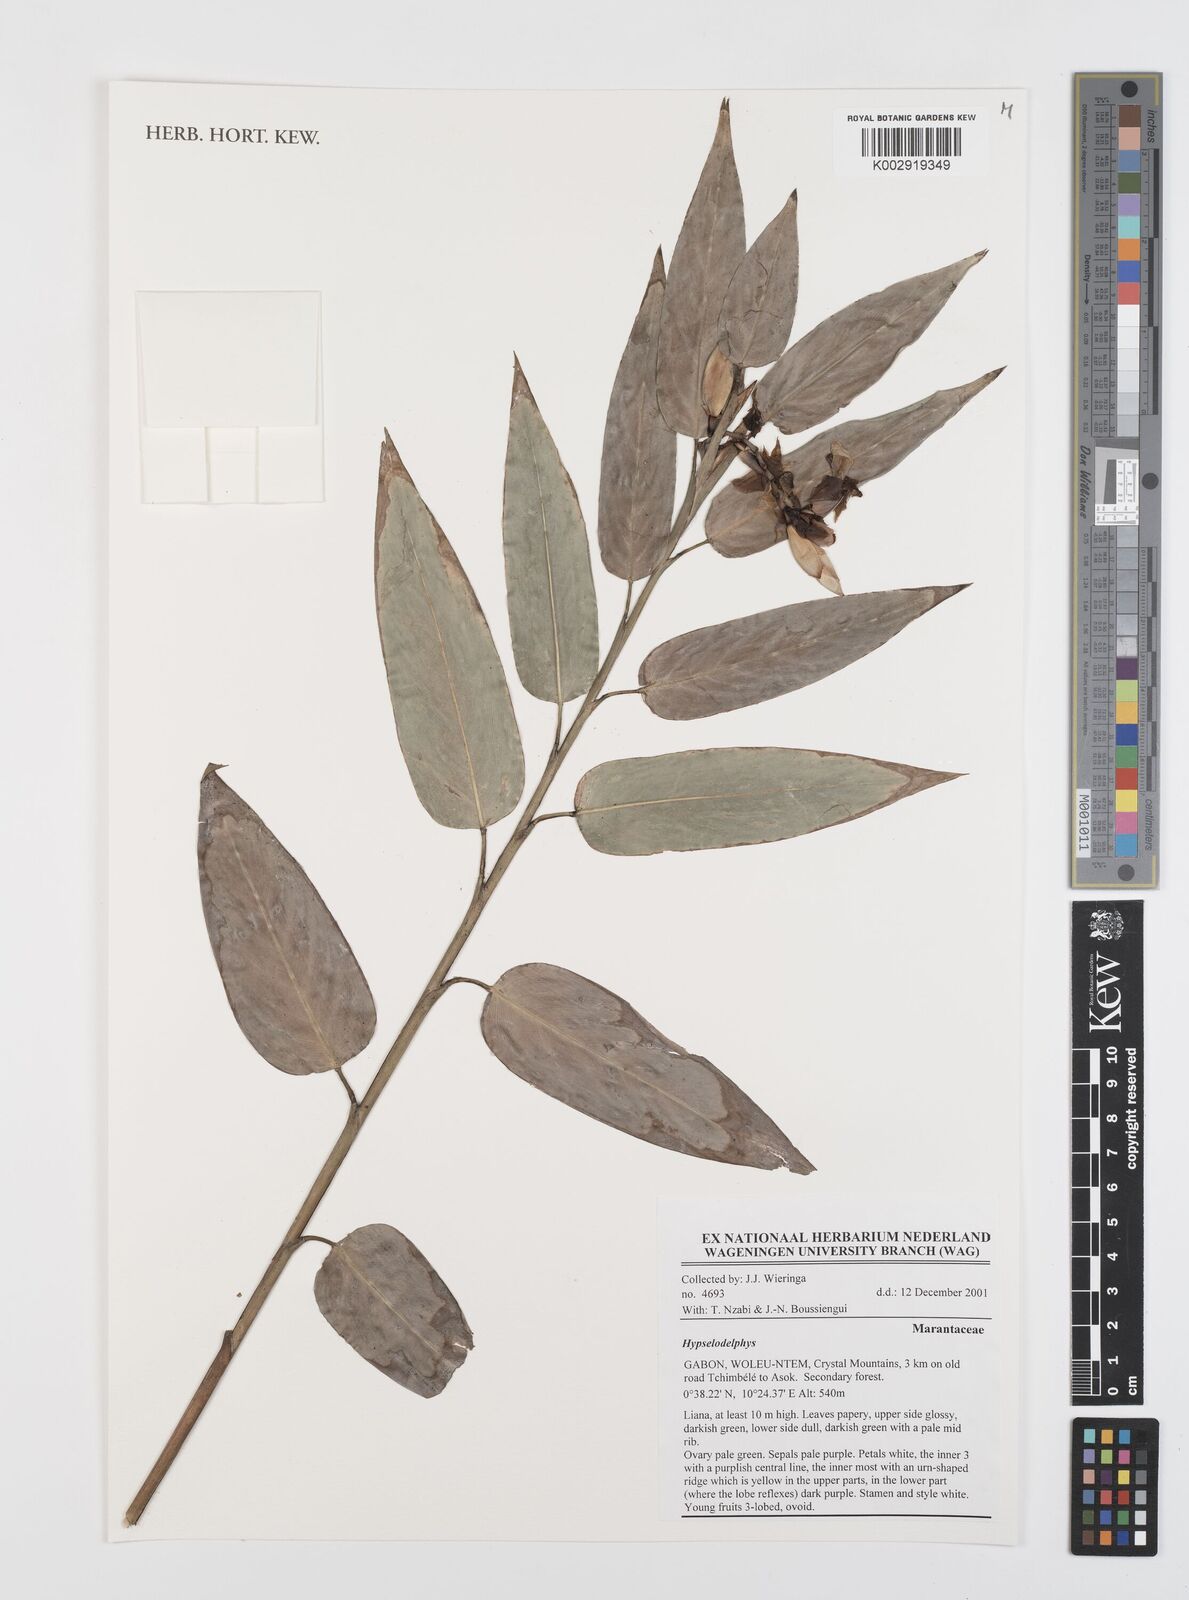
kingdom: Plantae
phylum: Tracheophyta
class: Liliopsida
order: Zingiberales
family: Marantaceae
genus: Hypselodelphys
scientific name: Hypselodelphys
